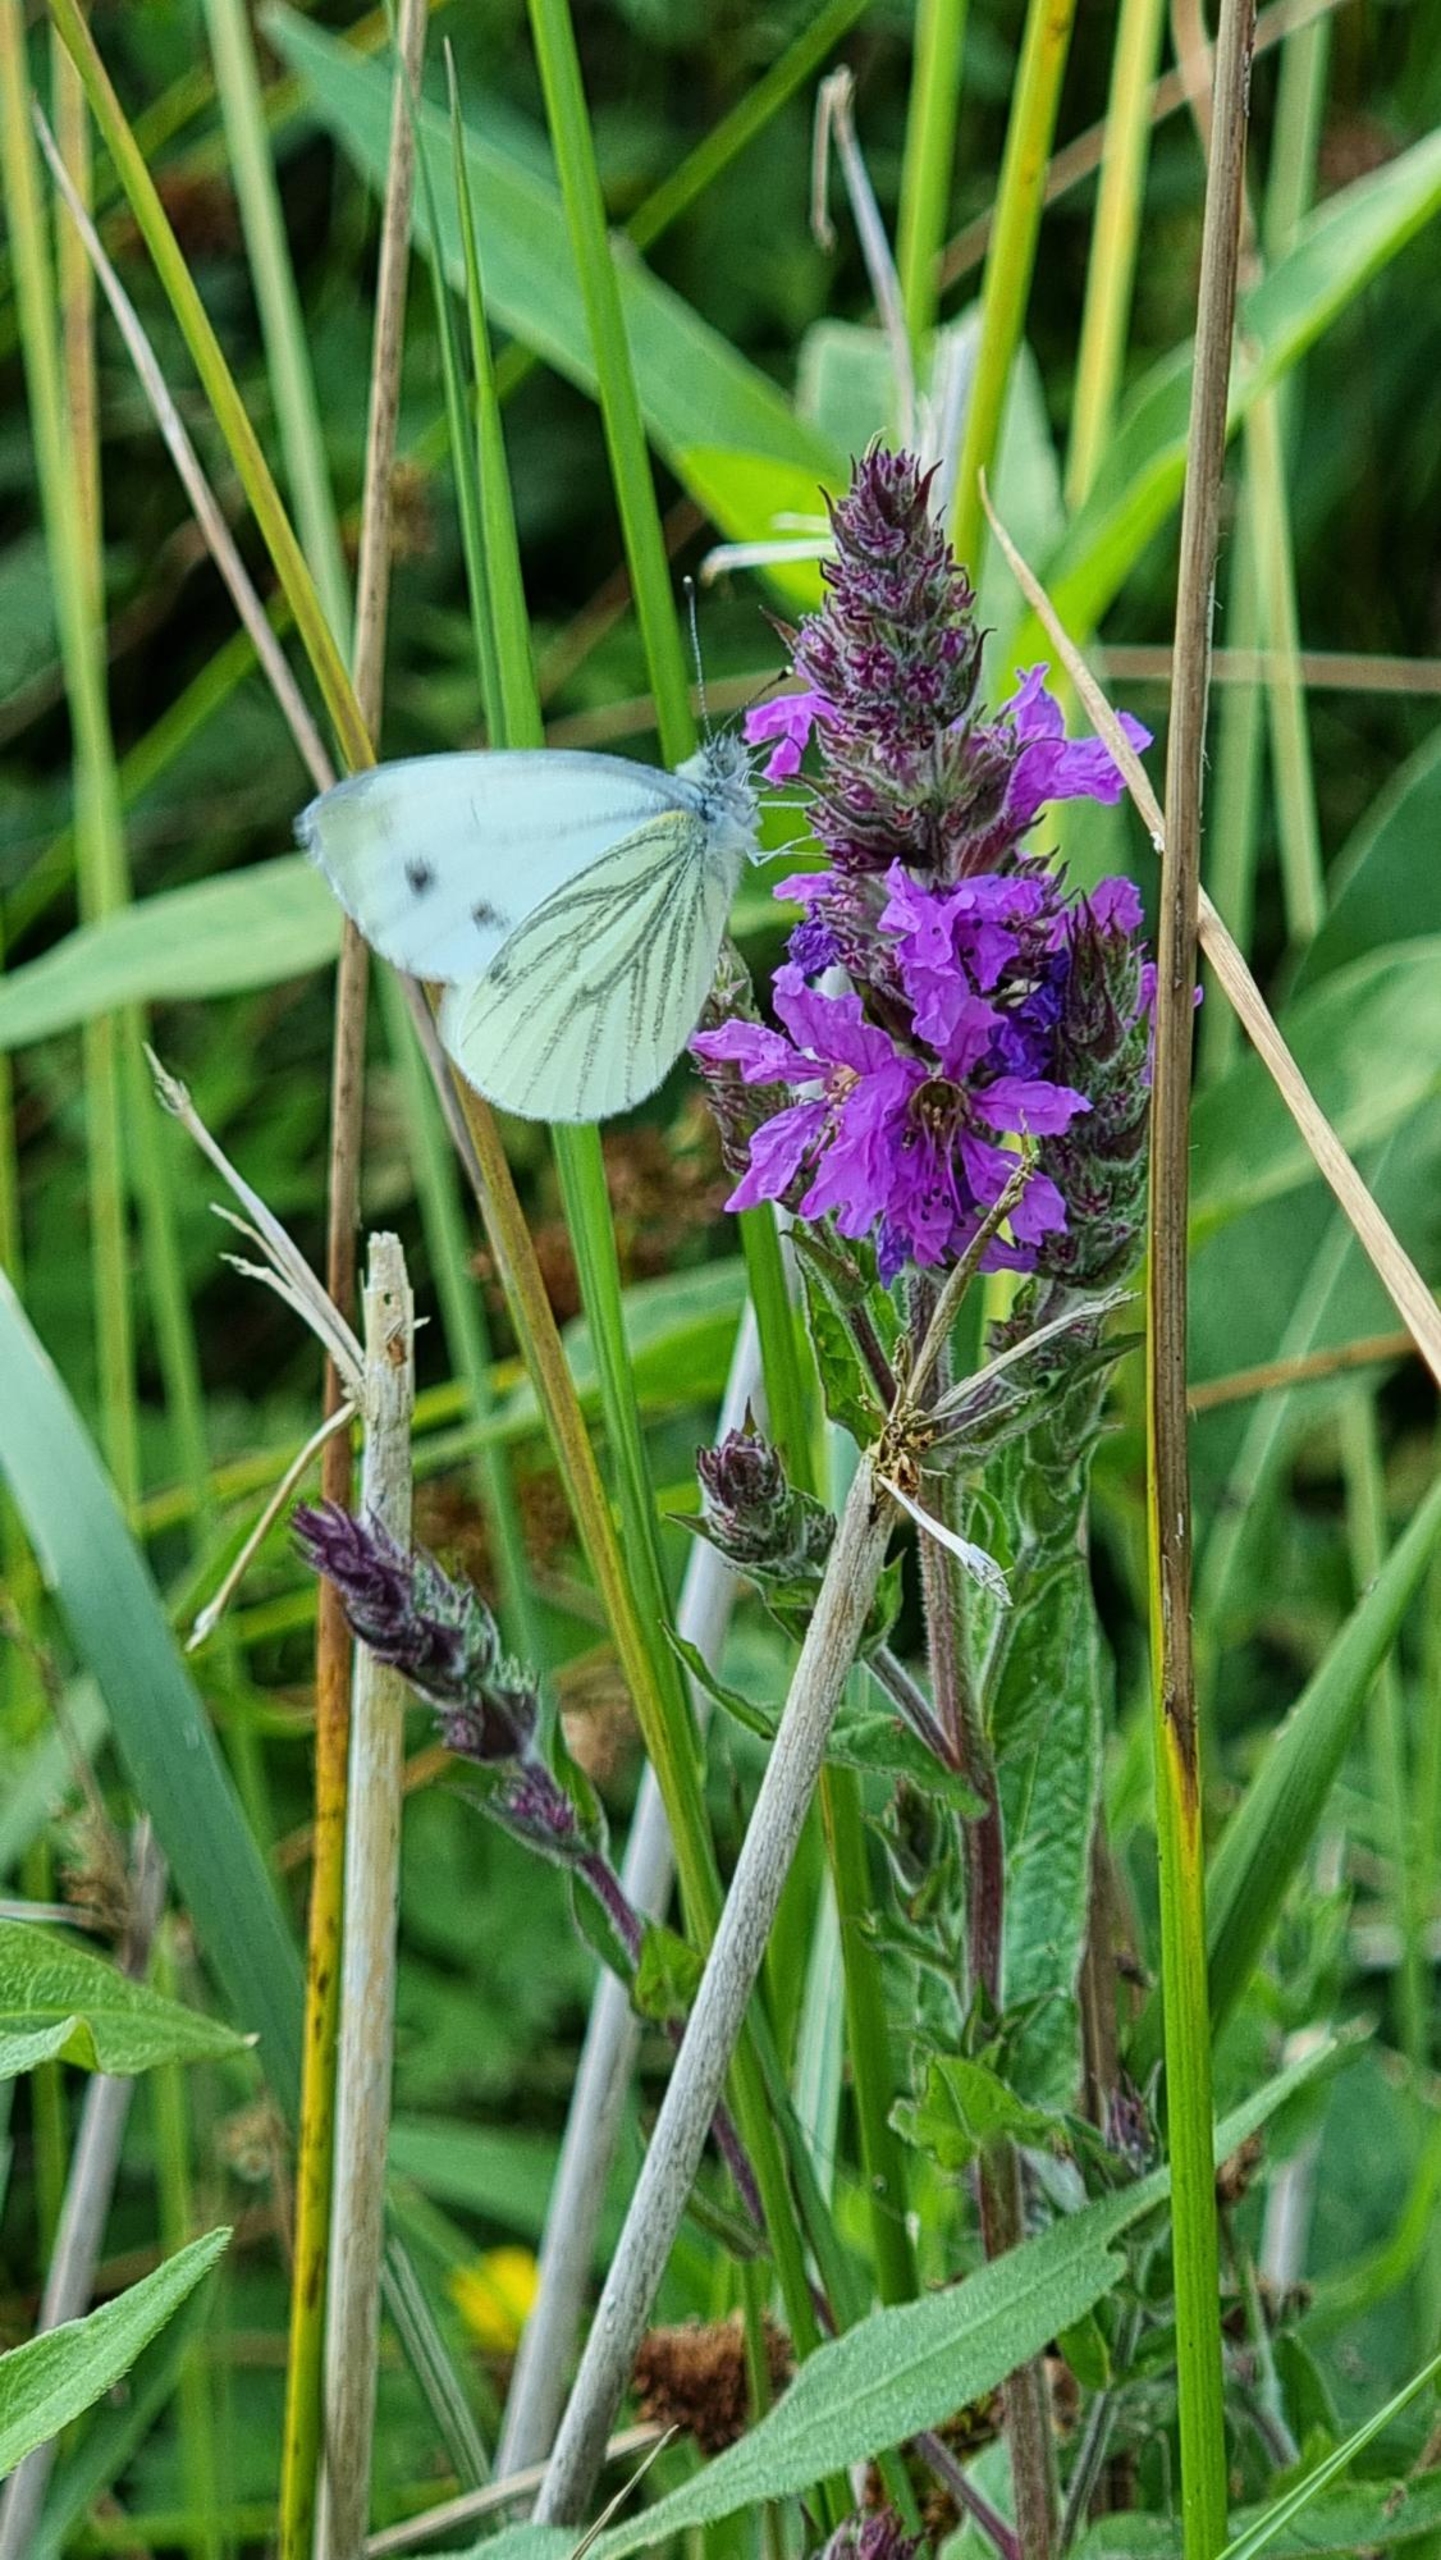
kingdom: Animalia
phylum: Arthropoda
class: Insecta
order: Lepidoptera
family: Pieridae
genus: Pieris
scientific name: Pieris napi
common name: Grønåret kålsommerfugl
